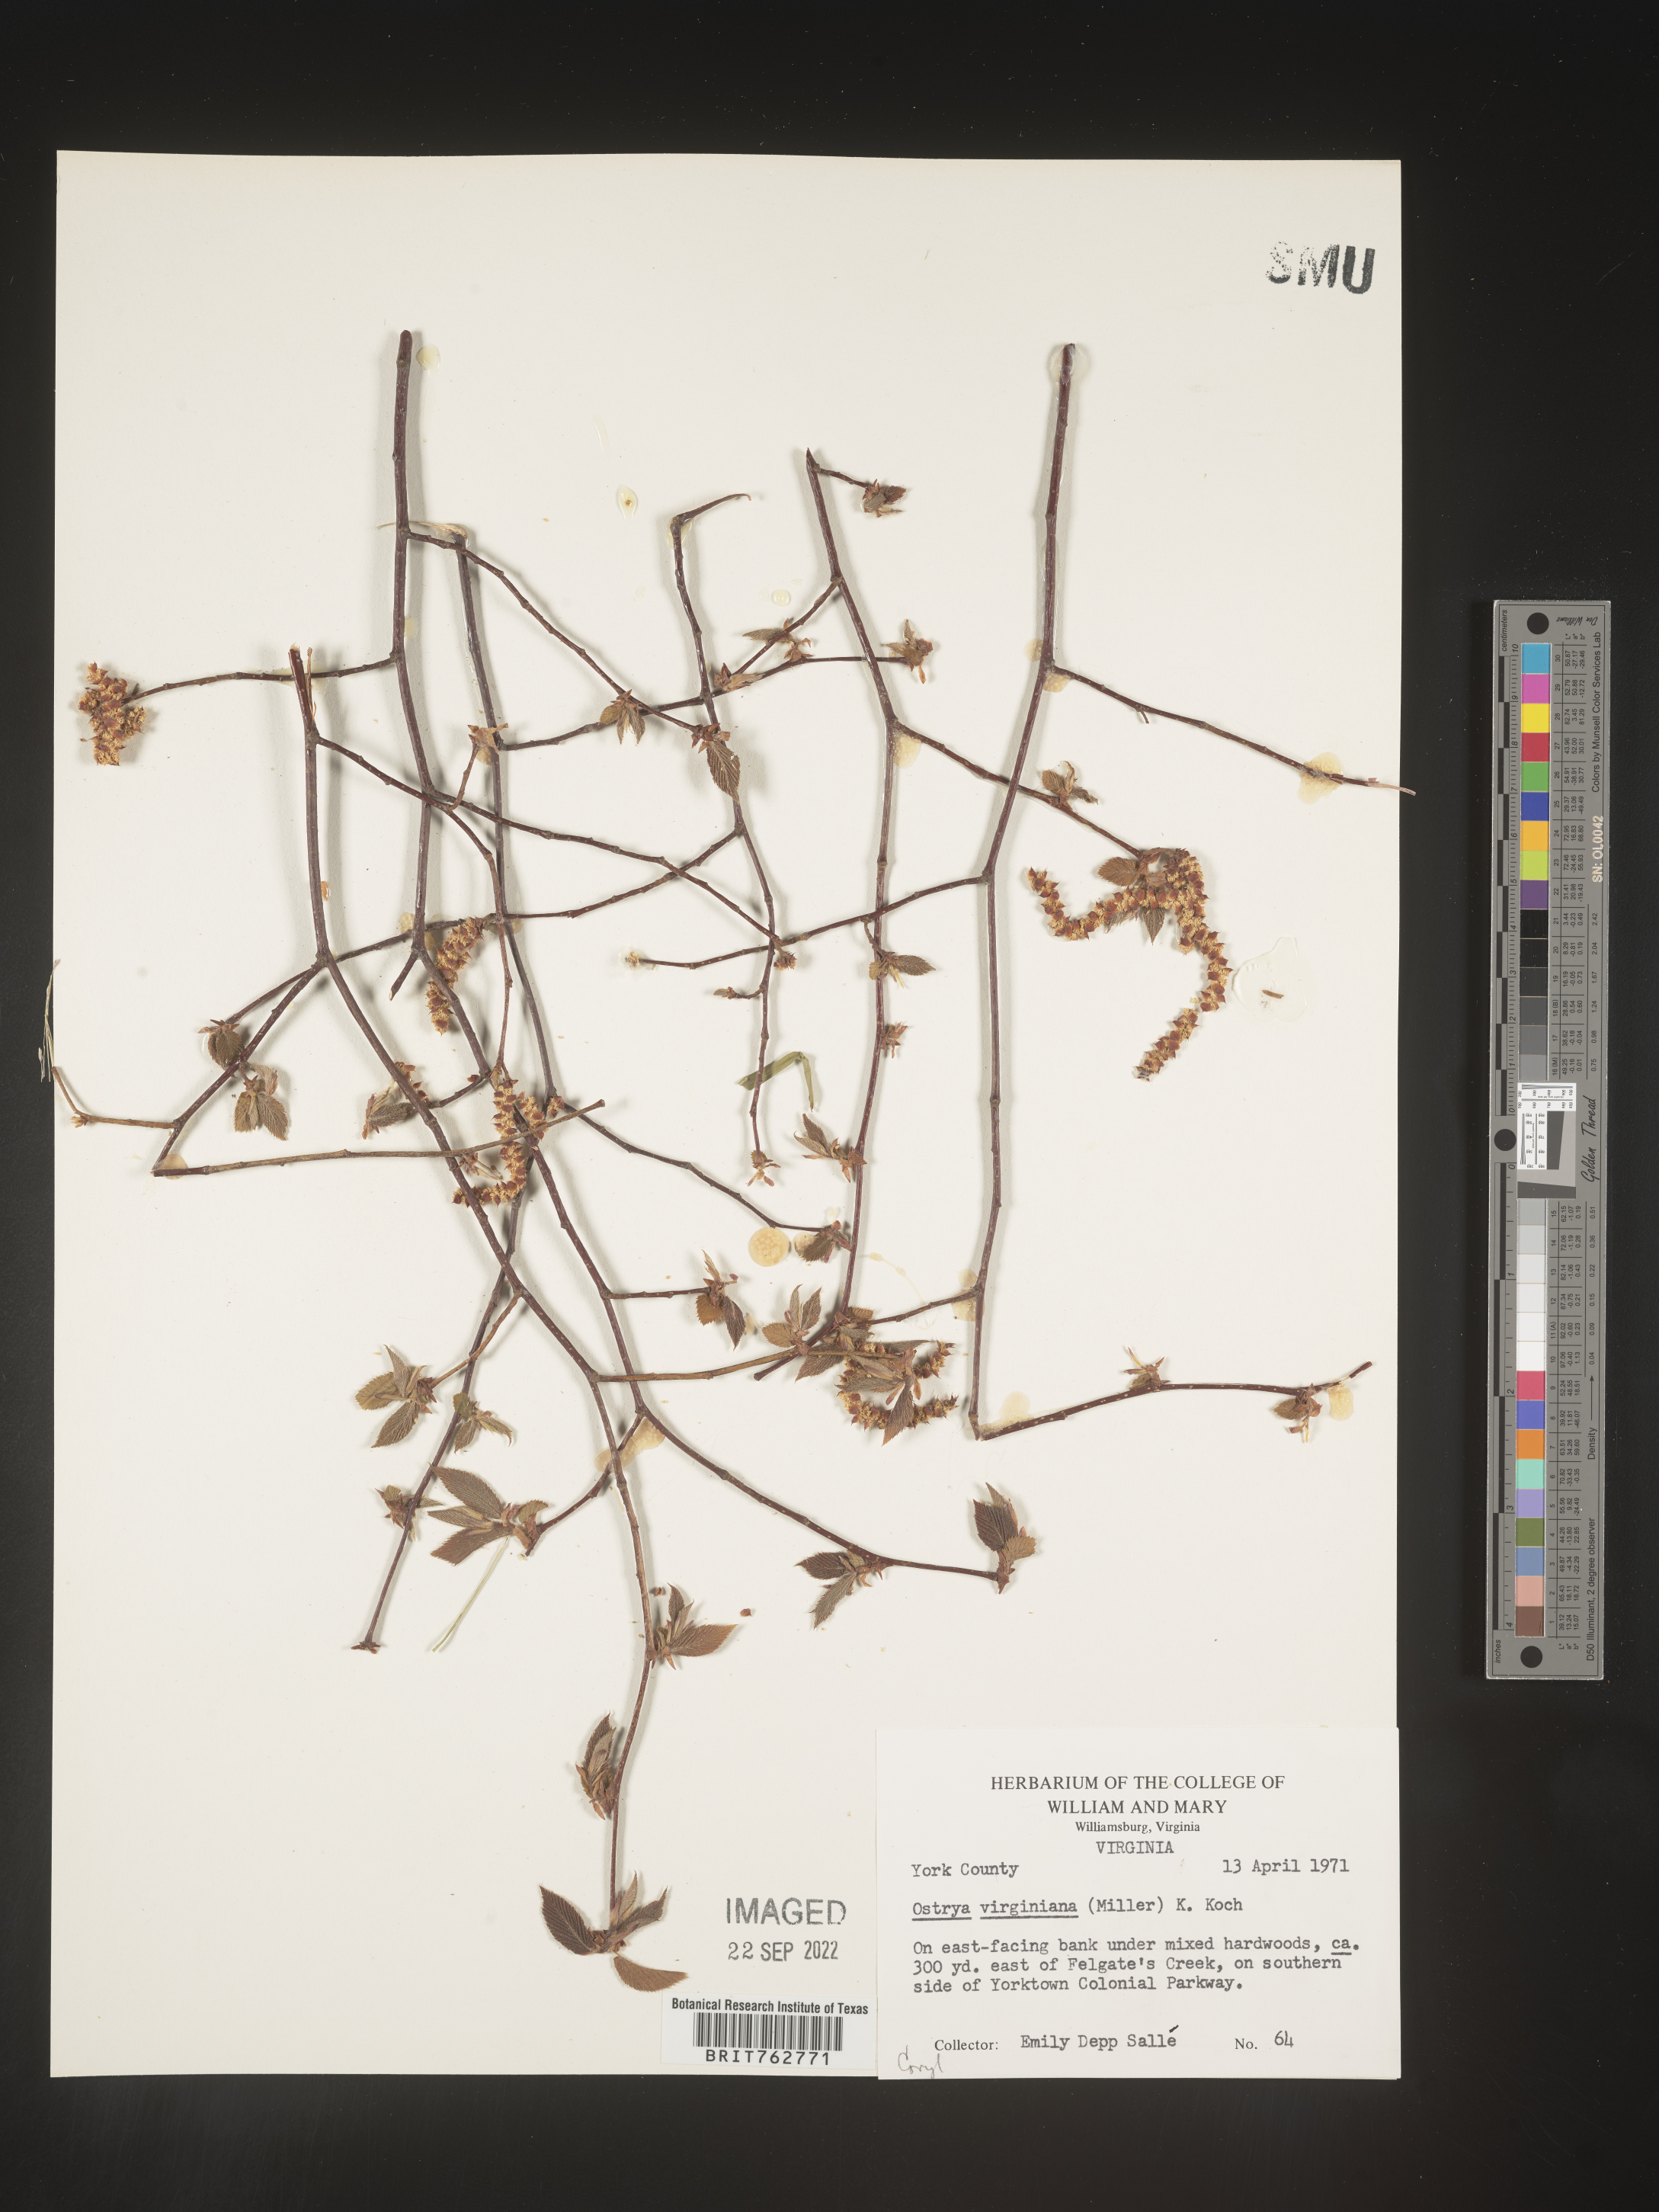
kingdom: Plantae
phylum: Tracheophyta
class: Magnoliopsida
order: Fagales
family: Betulaceae
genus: Ostrya
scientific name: Ostrya virginiana
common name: Ironwood
